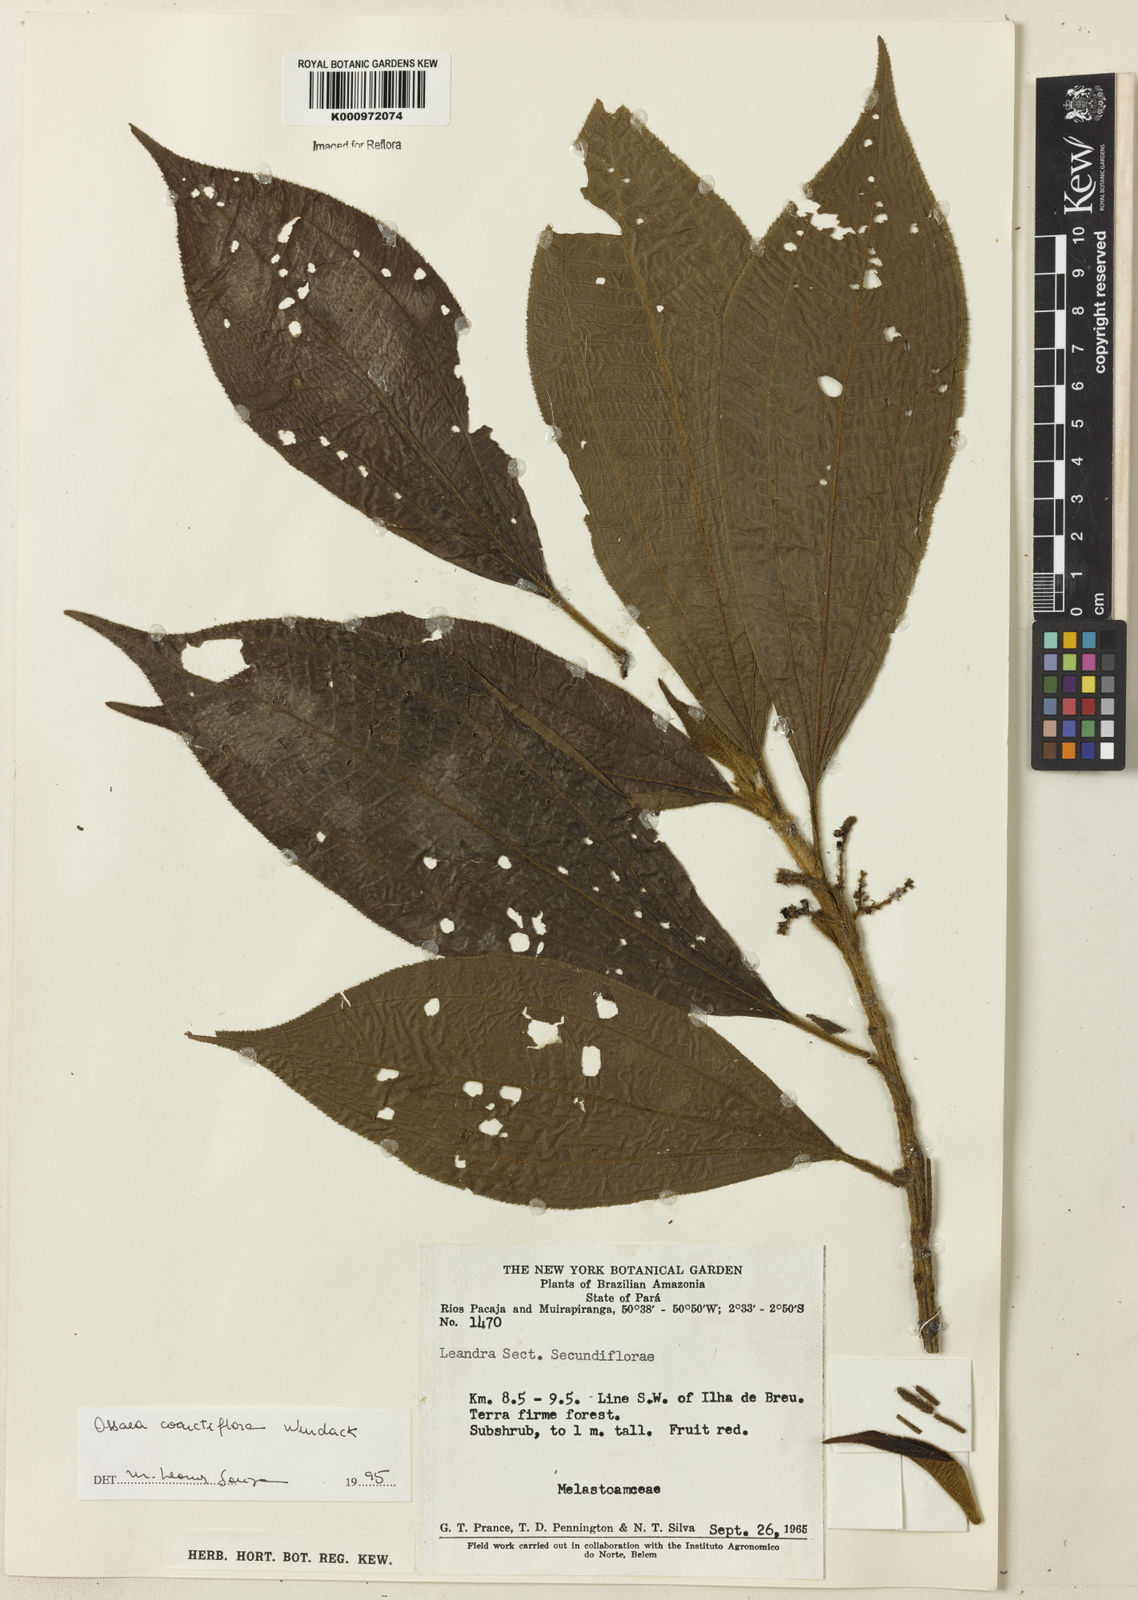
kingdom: Plantae
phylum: Tracheophyta
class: Magnoliopsida
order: Myrtales
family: Melastomataceae
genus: Ossaea
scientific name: Ossaea
